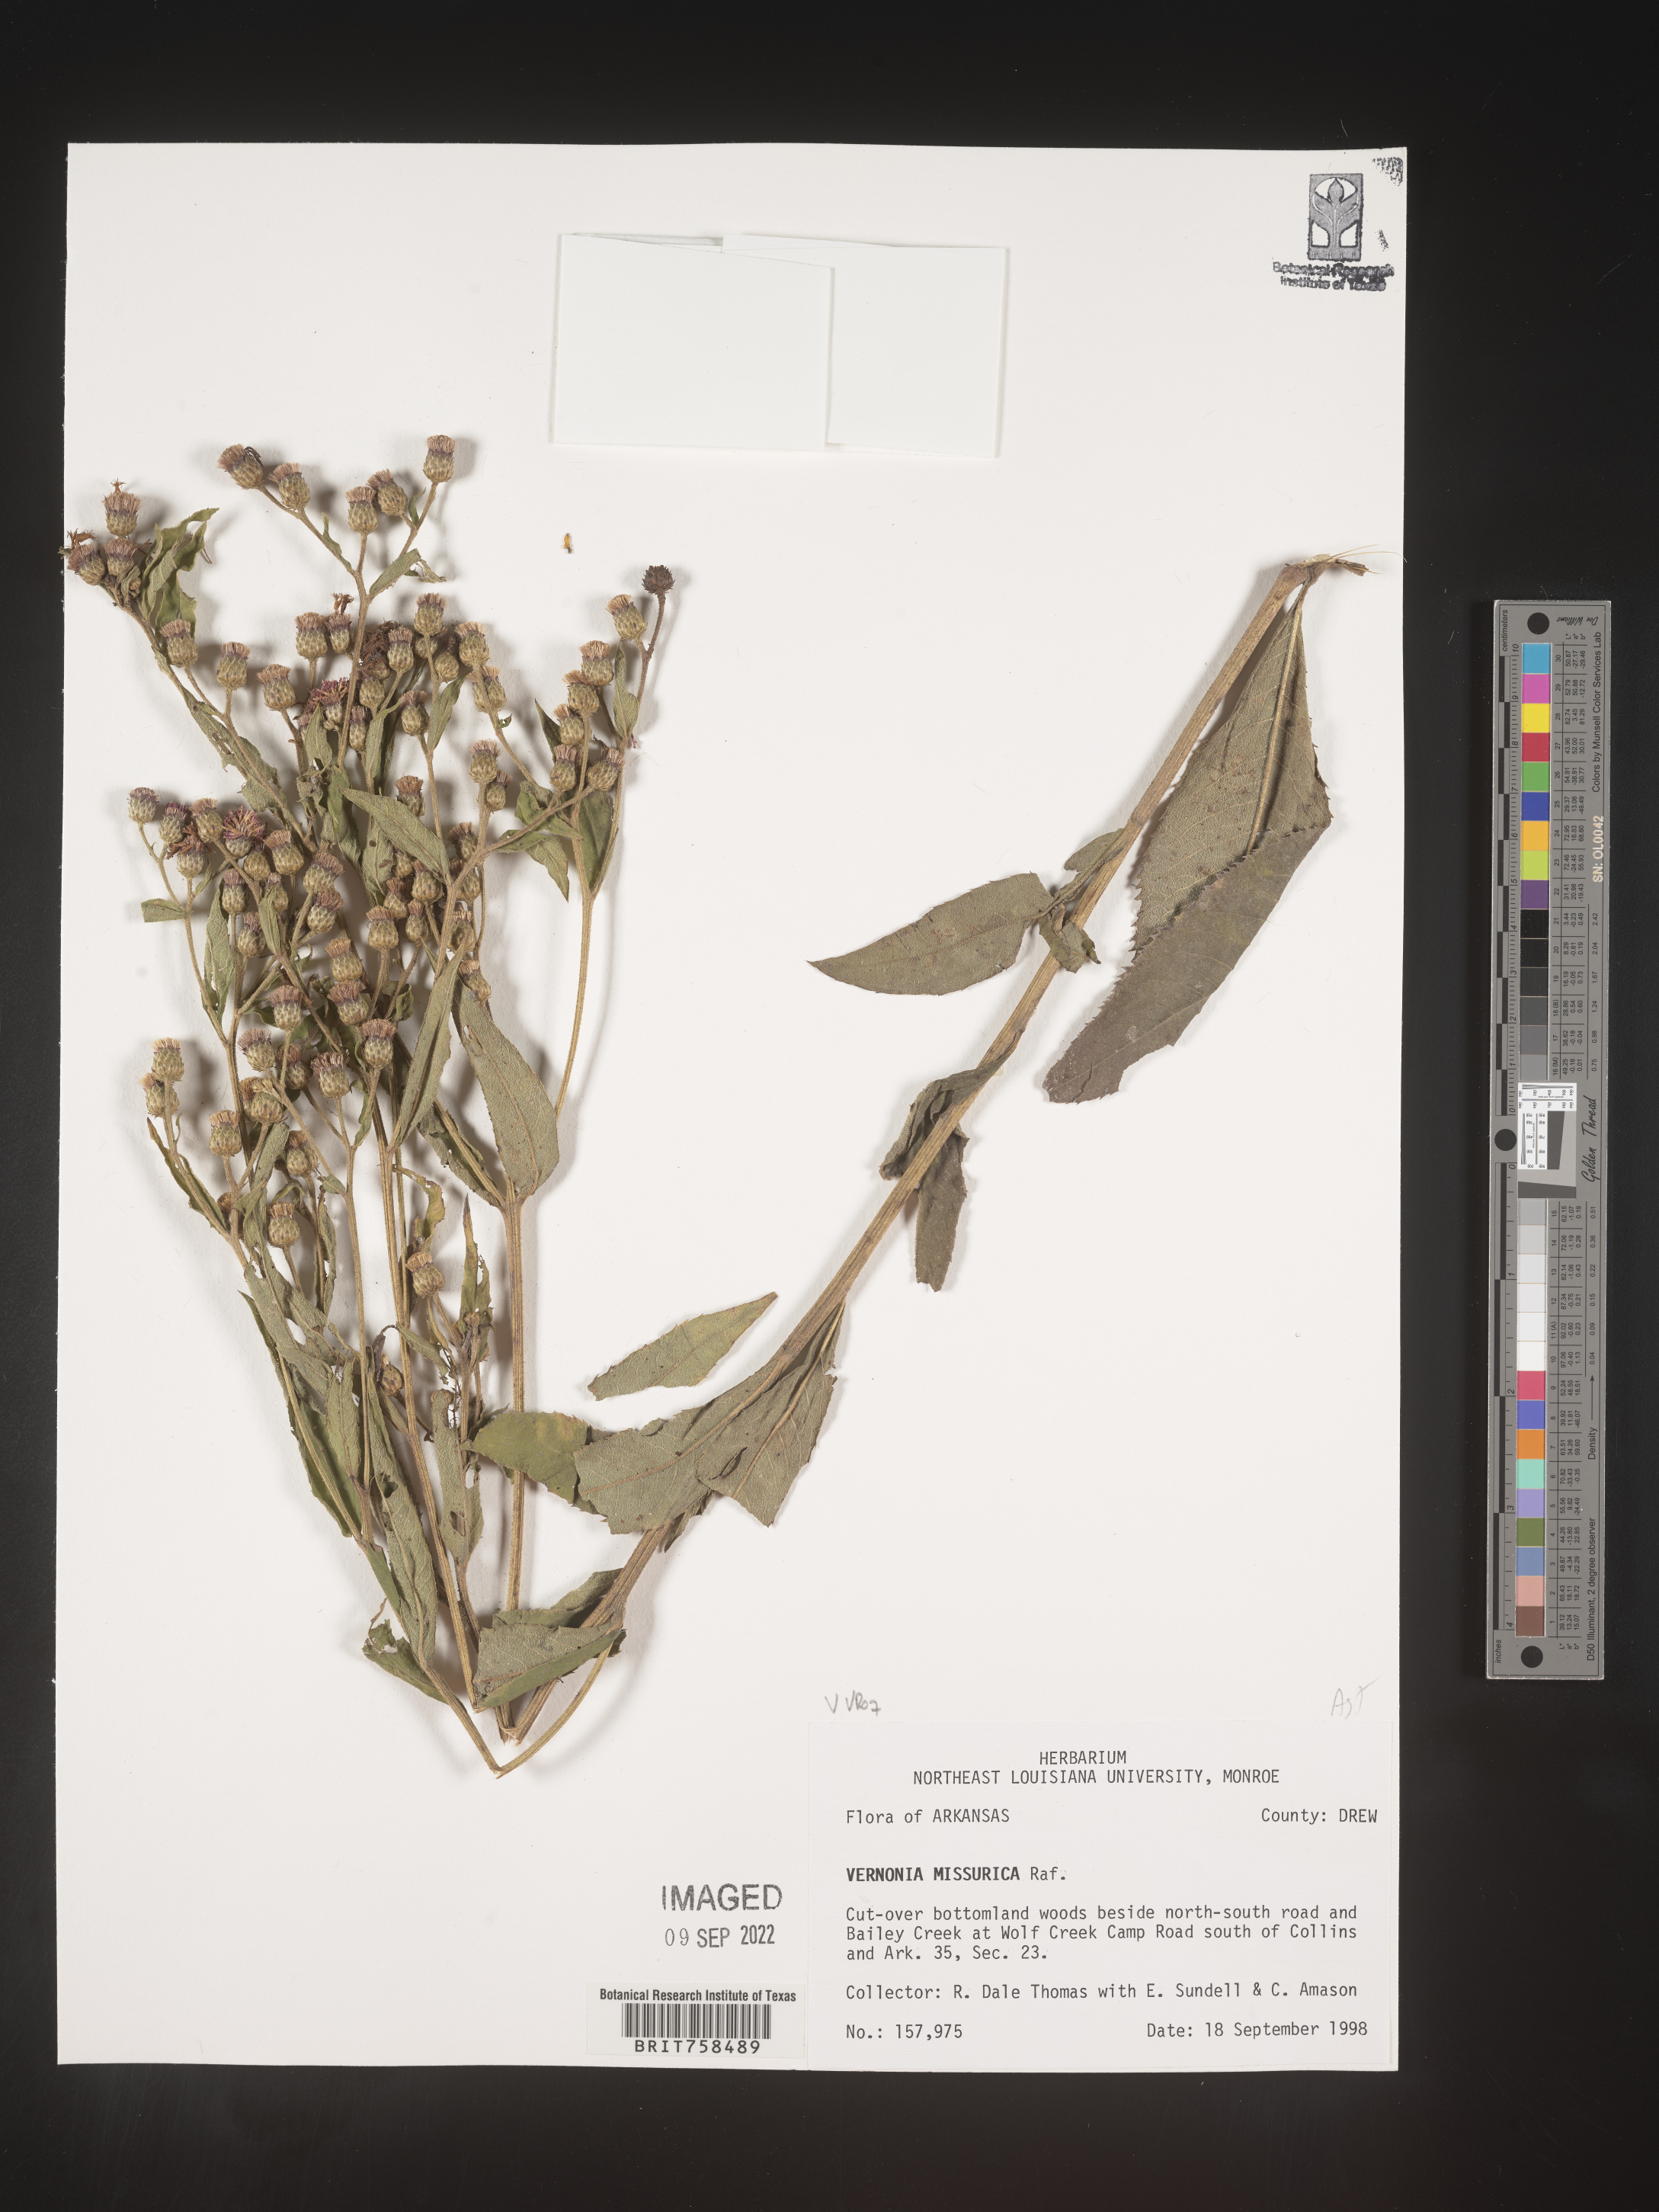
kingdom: Plantae
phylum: Tracheophyta
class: Magnoliopsida
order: Asterales
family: Asteraceae
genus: Vernonia
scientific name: Vernonia missurica
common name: Missouri ironweed
